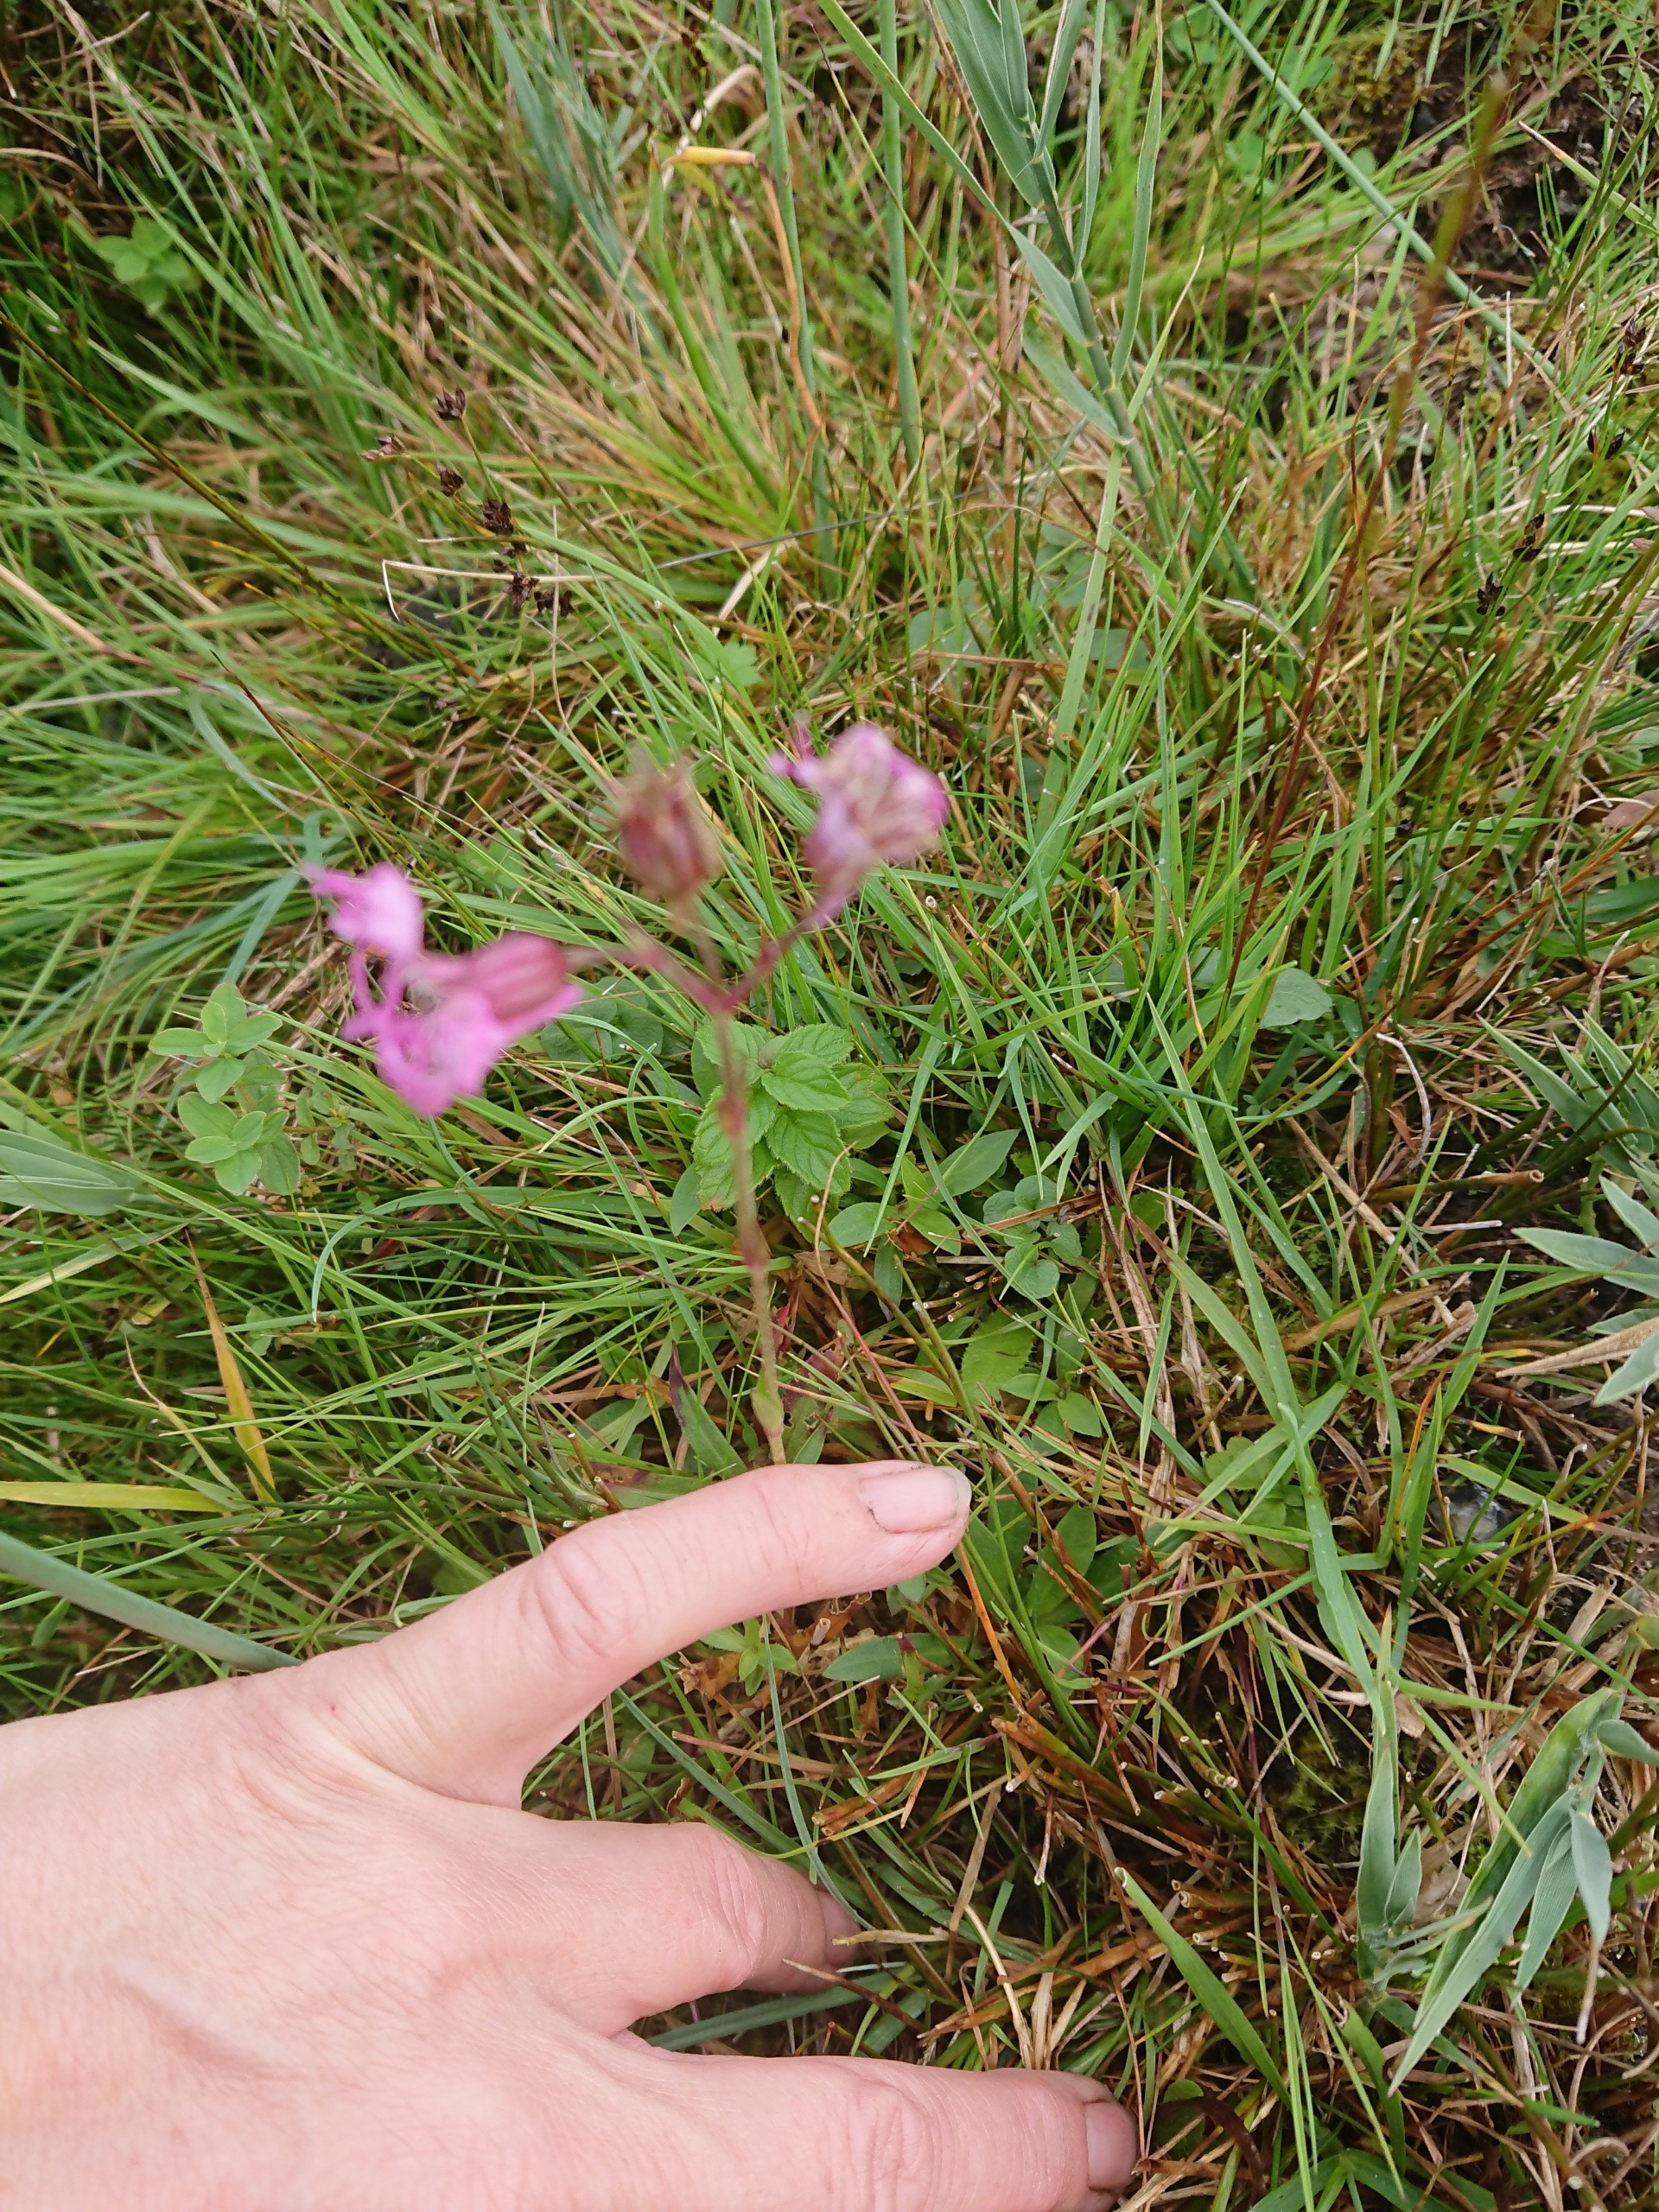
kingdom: Plantae
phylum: Tracheophyta
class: Magnoliopsida
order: Caryophyllales
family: Caryophyllaceae
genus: Silene
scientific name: Silene flos-cuculi
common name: Trævlekrone
